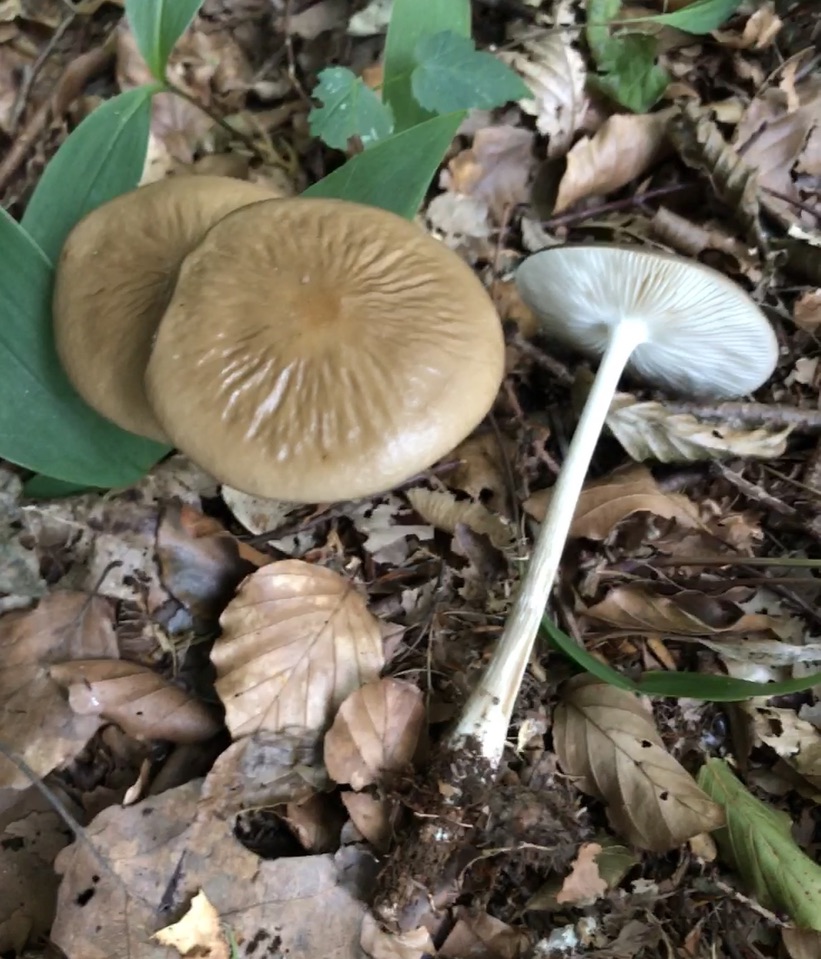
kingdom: Fungi
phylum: Basidiomycota
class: Agaricomycetes
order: Agaricales
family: Physalacriaceae
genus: Hymenopellis
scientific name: Hymenopellis radicata
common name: almindelig pælerodshat
